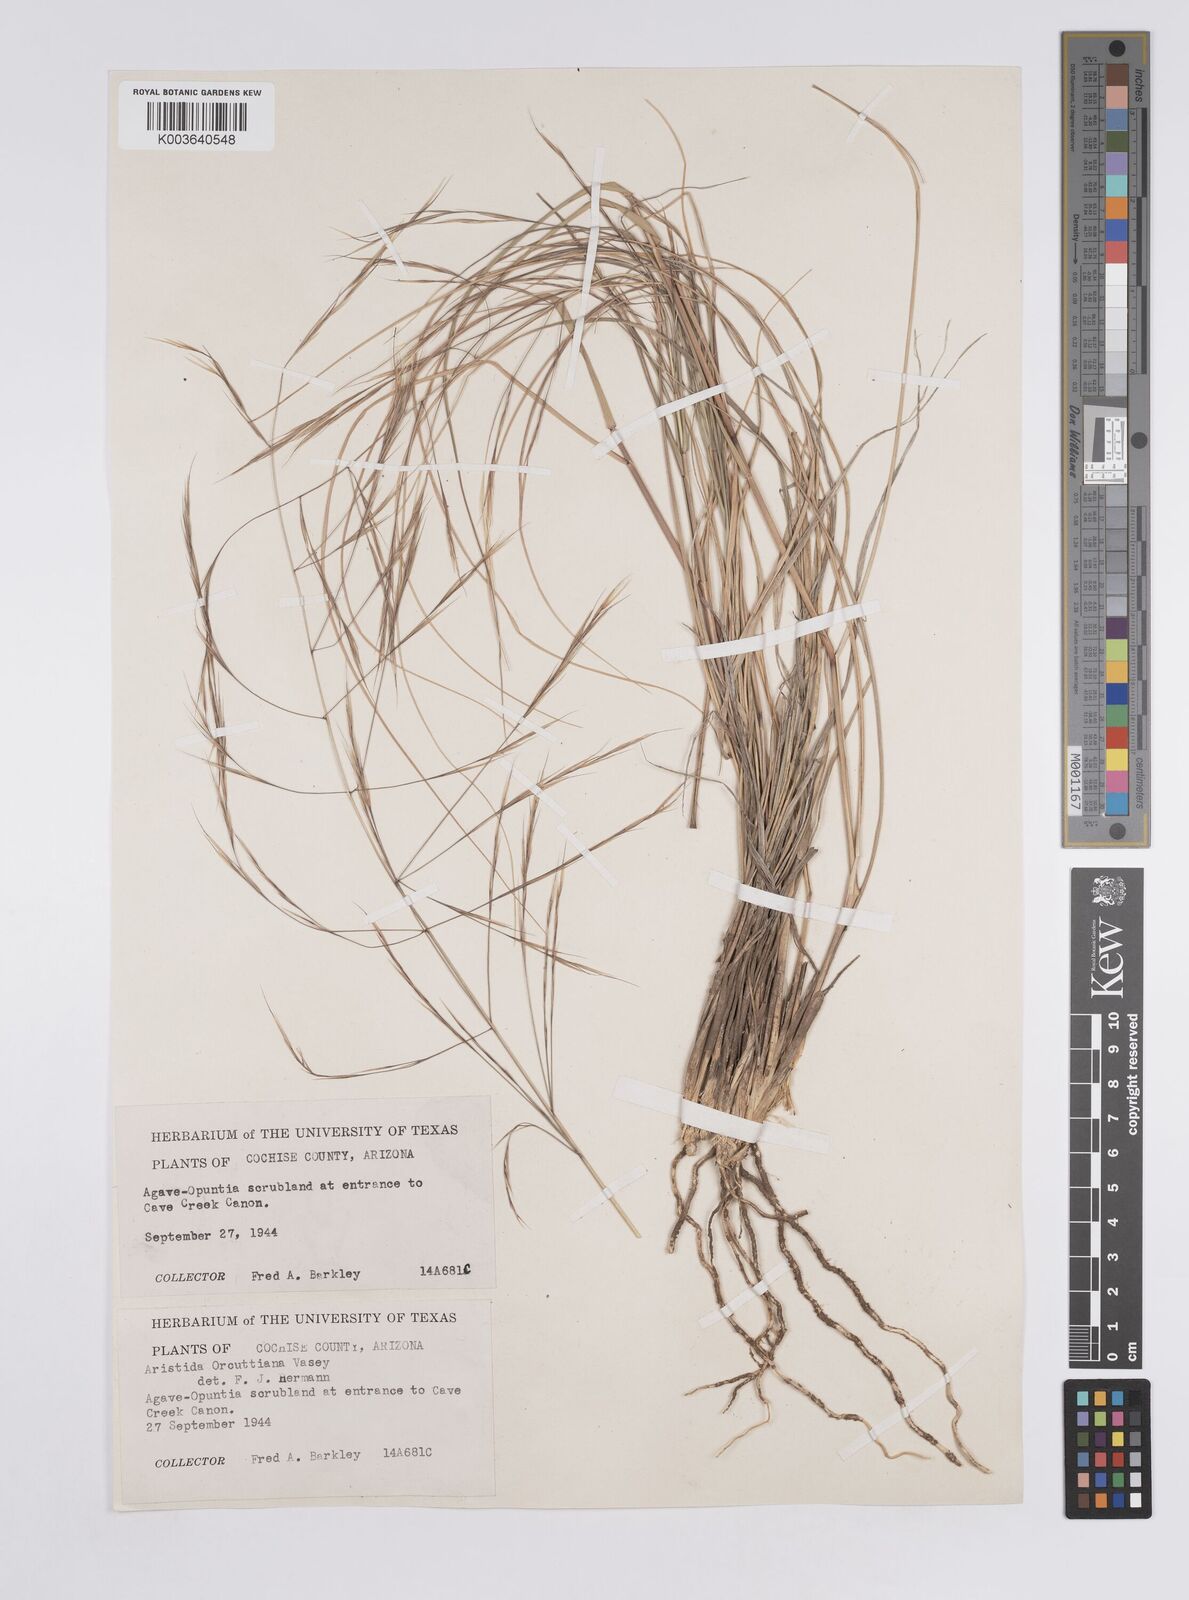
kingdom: Plantae
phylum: Tracheophyta
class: Liliopsida
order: Poales
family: Poaceae
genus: Aristida
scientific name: Aristida schiedeana
